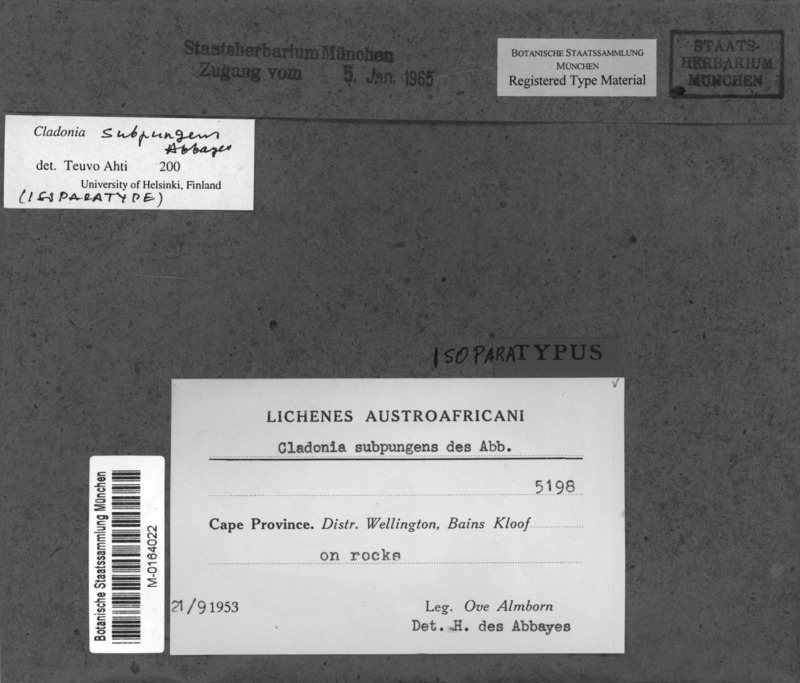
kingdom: Fungi
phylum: Ascomycota
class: Lecanoromycetes
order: Lecanorales
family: Cladoniaceae
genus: Cladonia
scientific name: Cladonia
